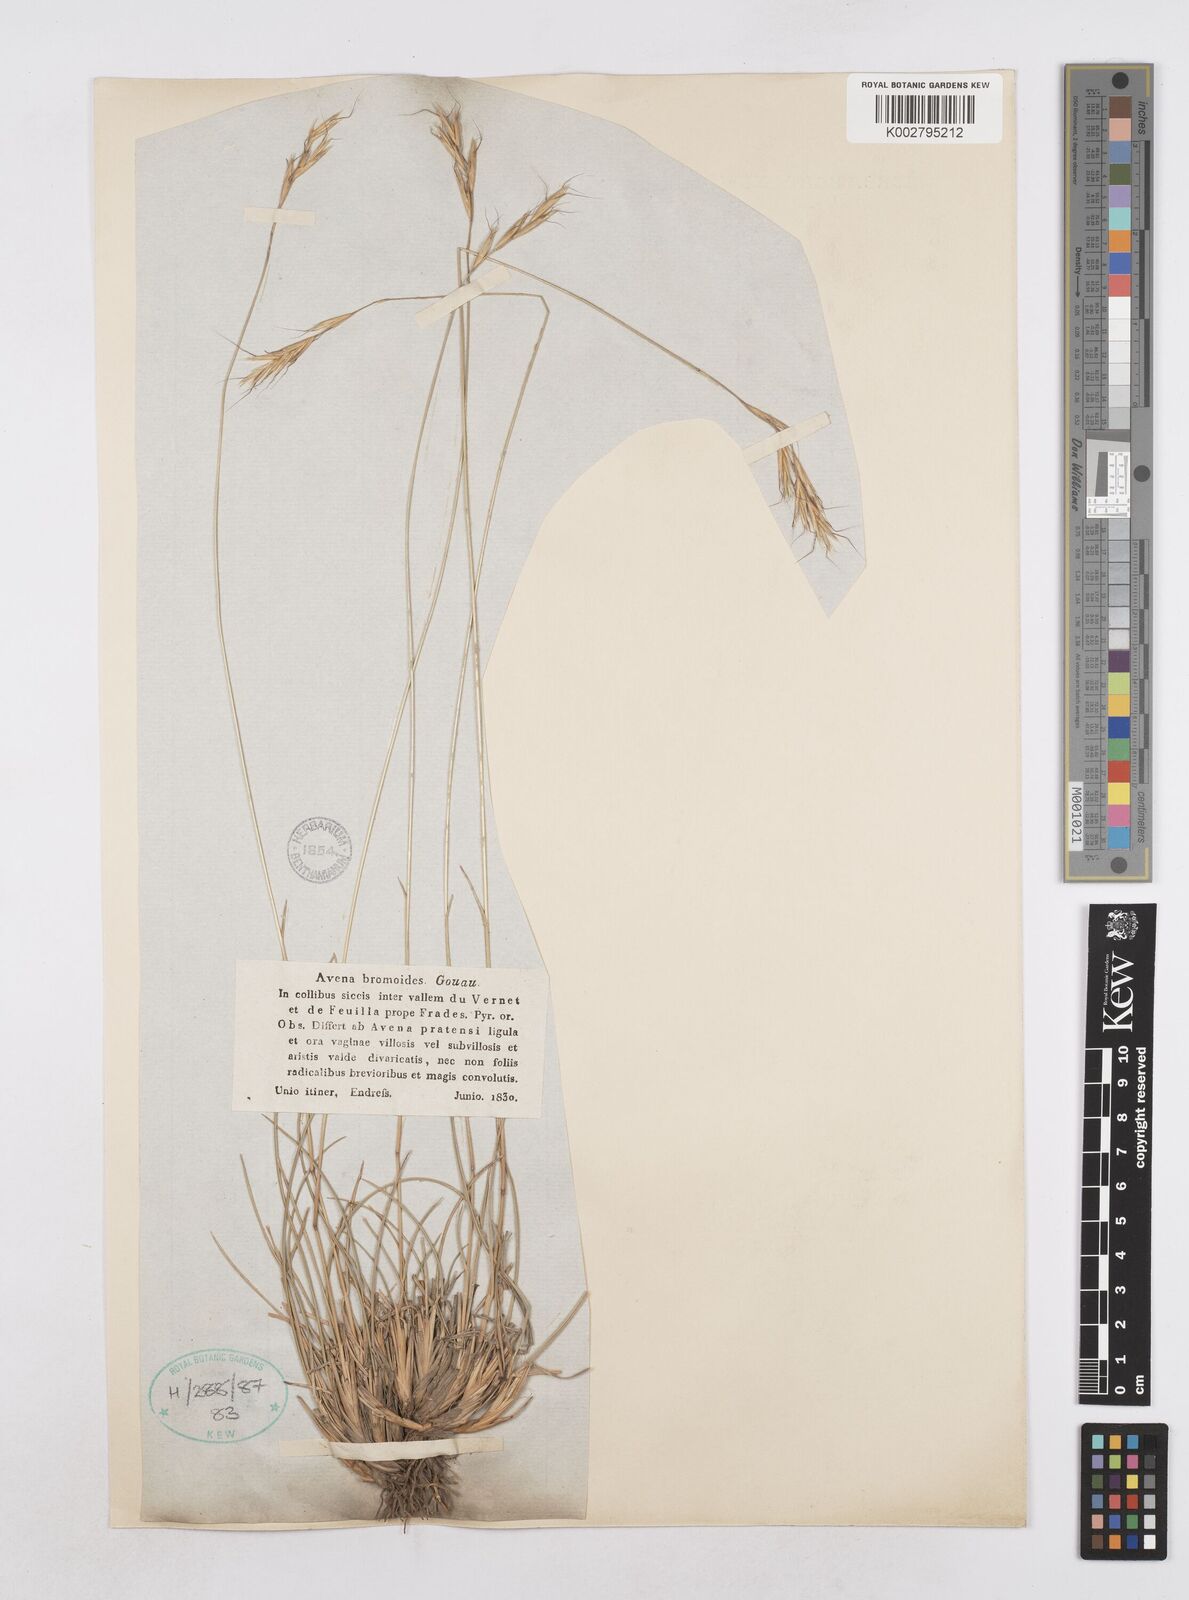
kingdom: Plantae
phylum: Tracheophyta
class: Liliopsida
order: Poales
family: Poaceae
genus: Helictochloa
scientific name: Helictochloa bromoides
